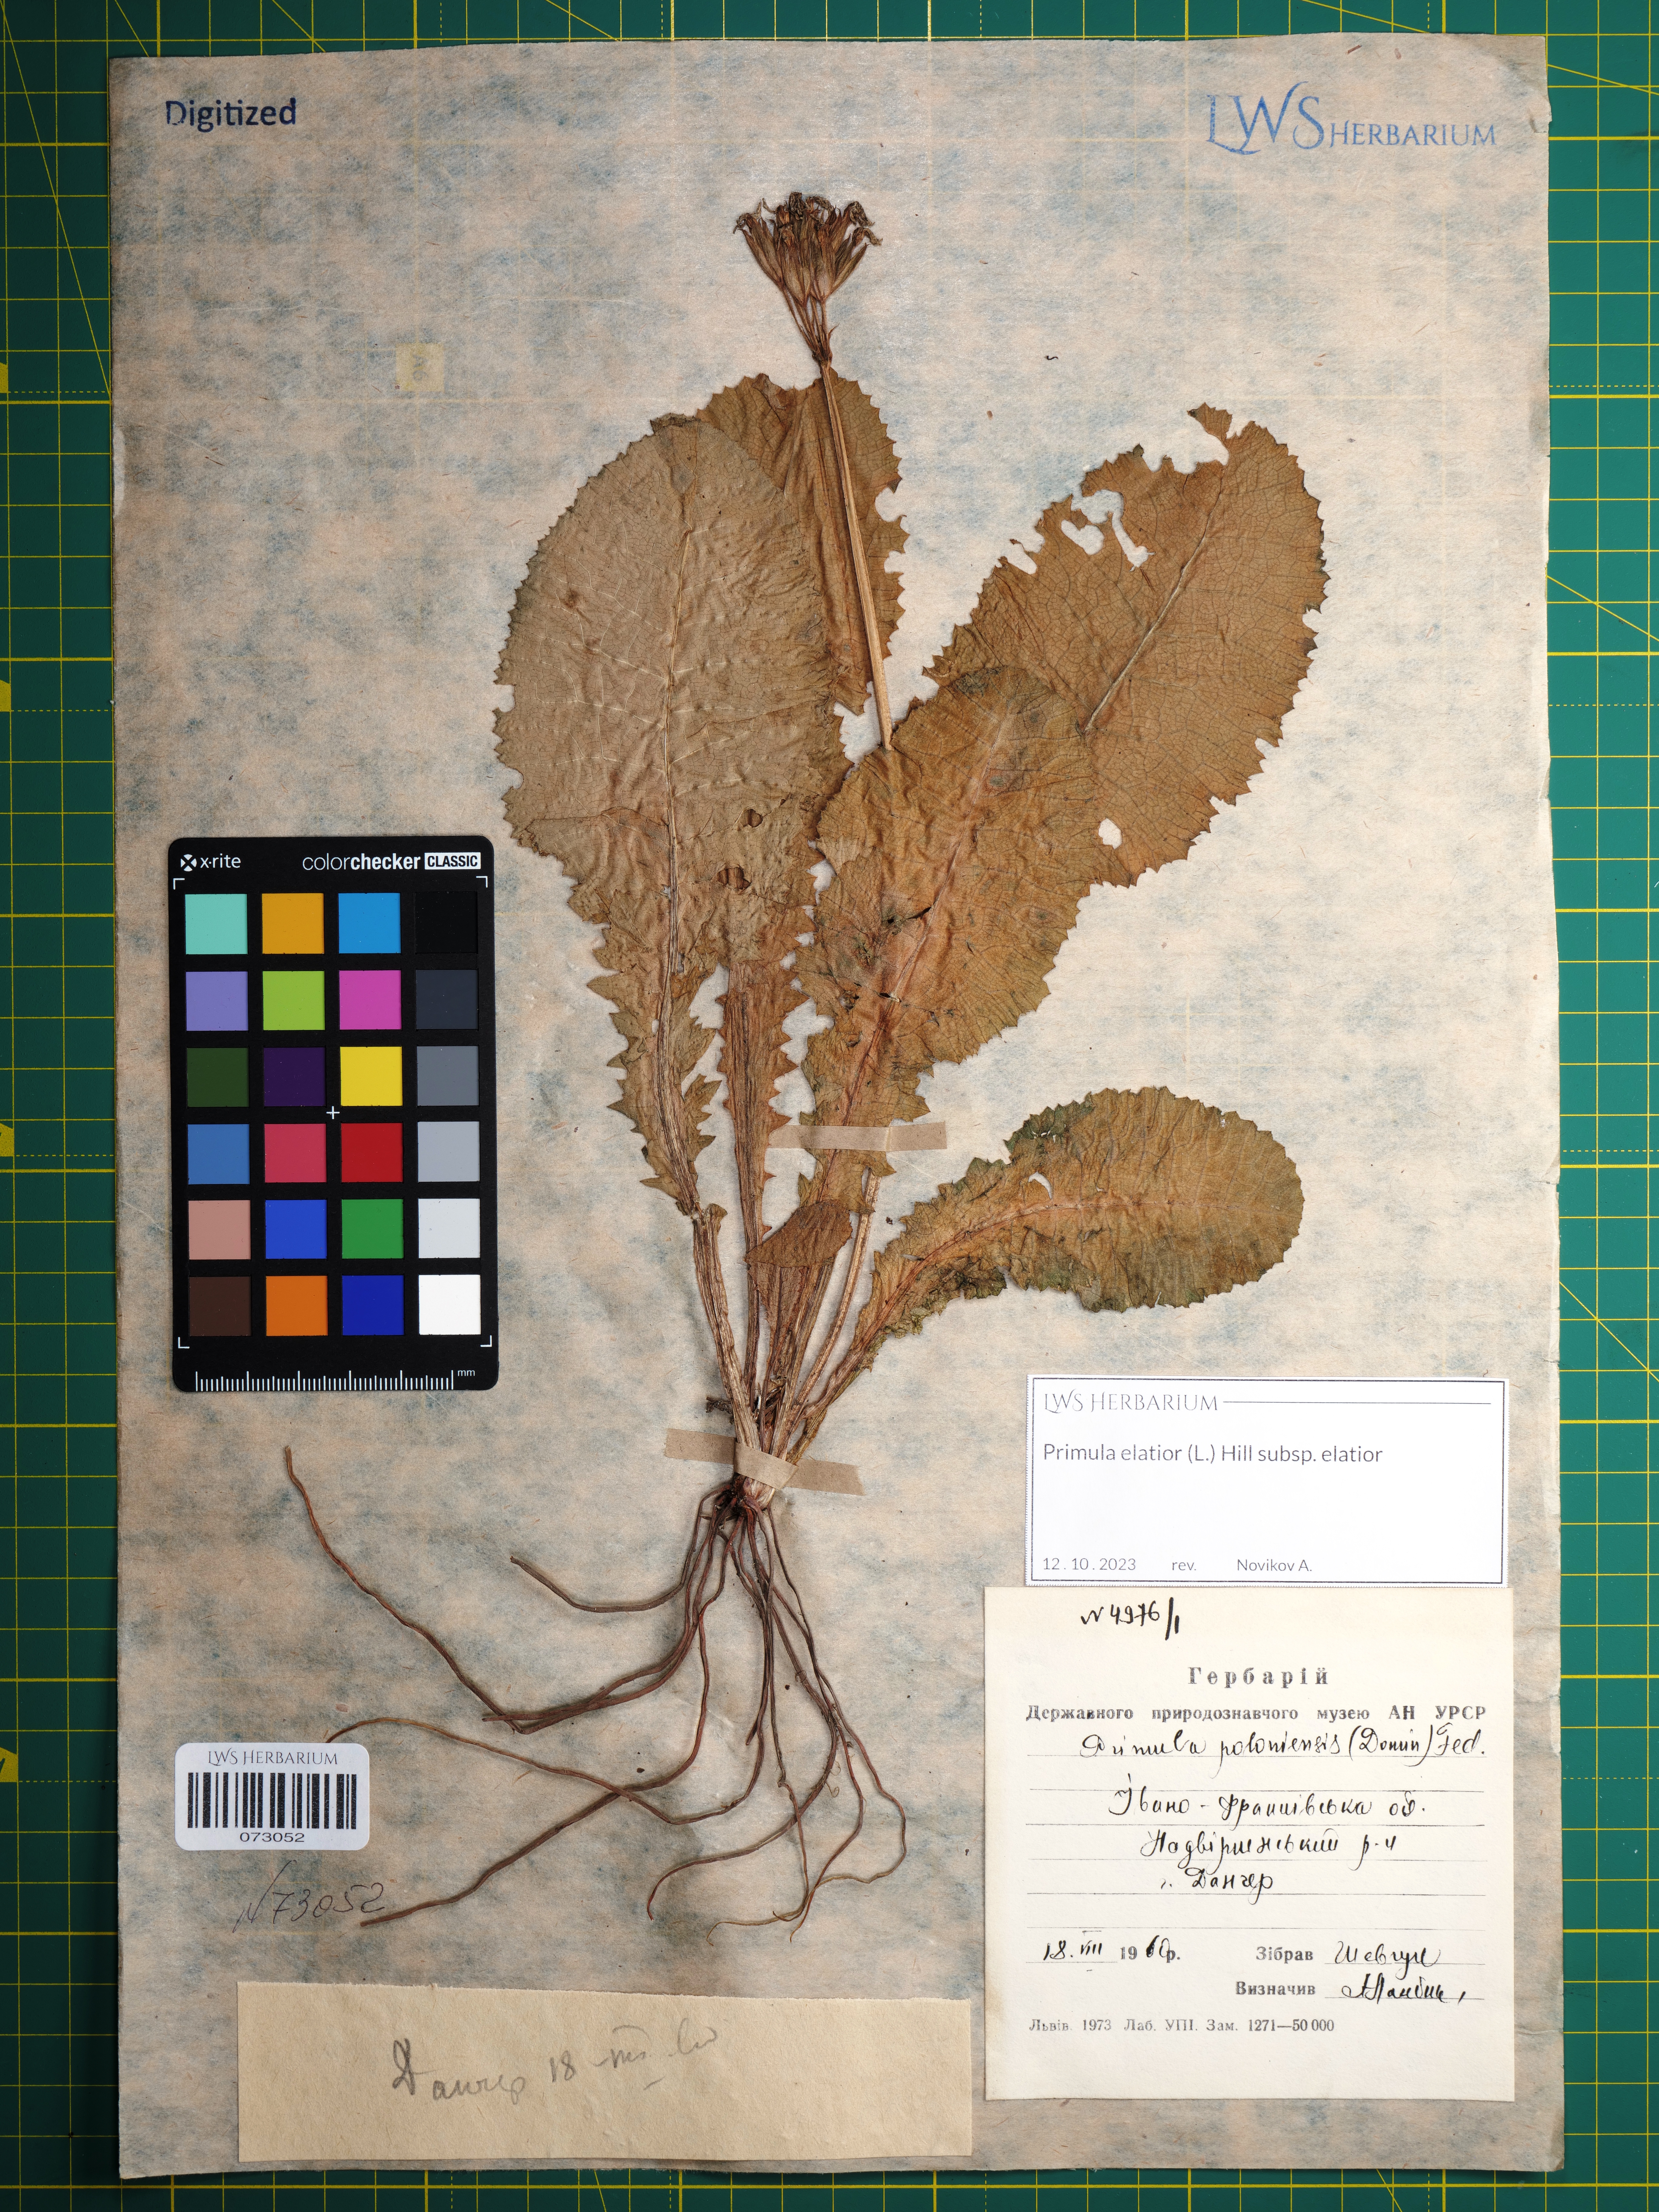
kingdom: Plantae
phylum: Tracheophyta
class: Magnoliopsida
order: Ericales
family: Primulaceae
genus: Primula
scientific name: Primula elatior
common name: Oxlip
